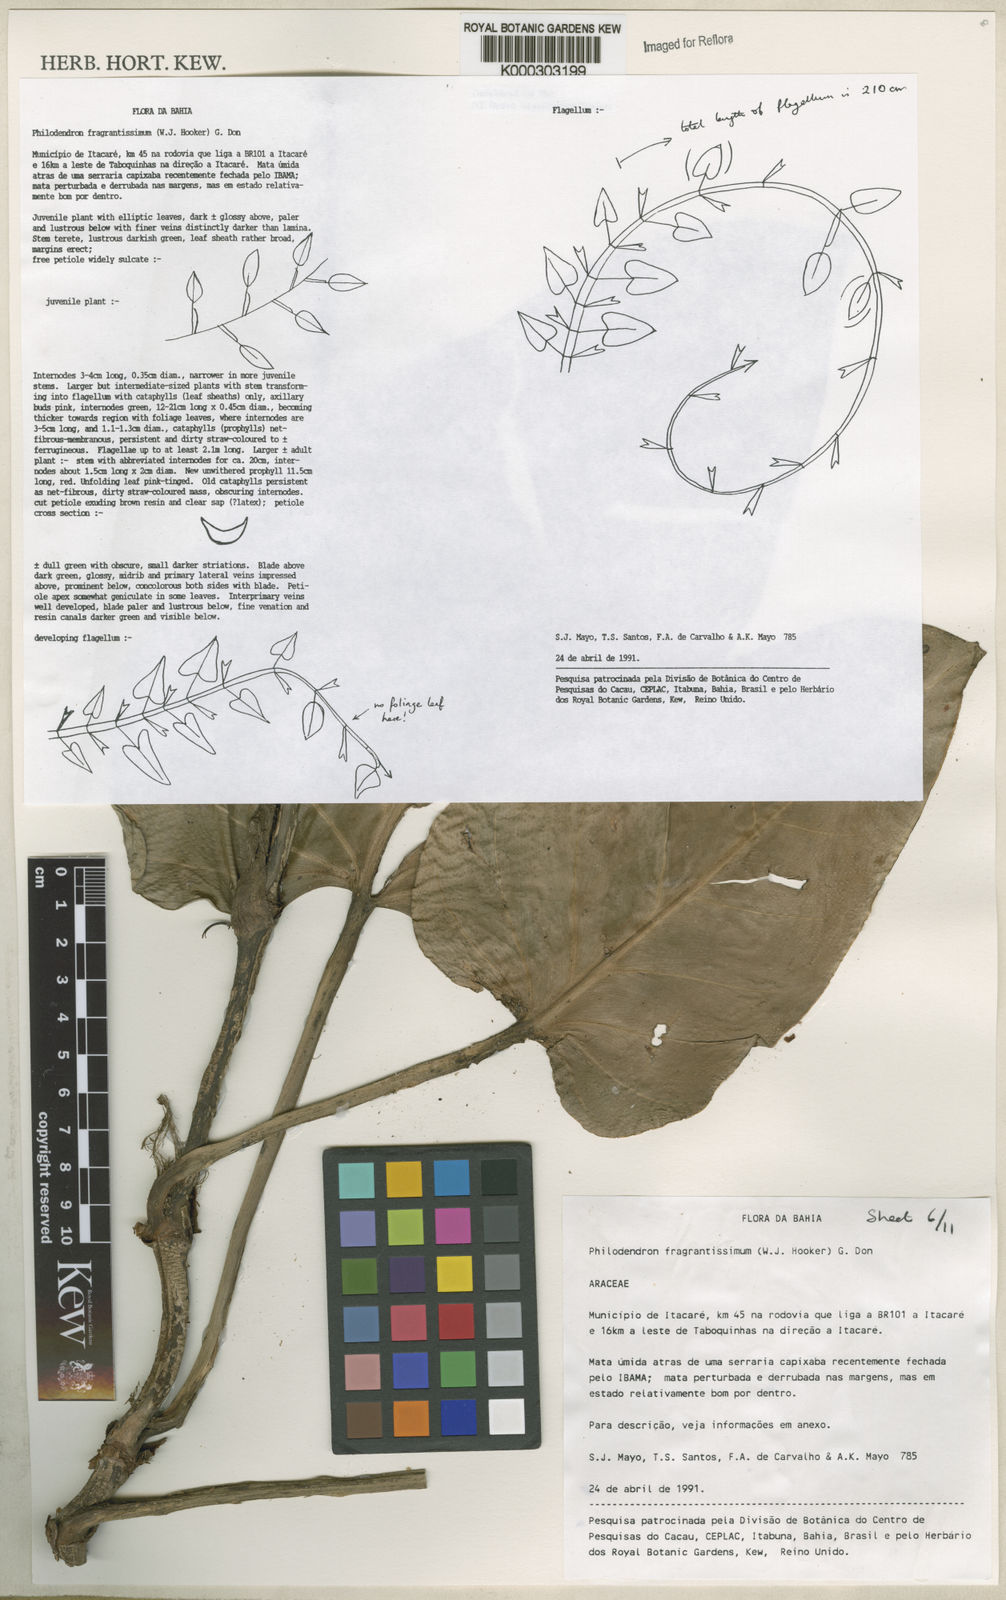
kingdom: Plantae
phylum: Tracheophyta
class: Liliopsida
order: Alismatales
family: Araceae
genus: Philodendron
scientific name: Philodendron fragrantissimum
